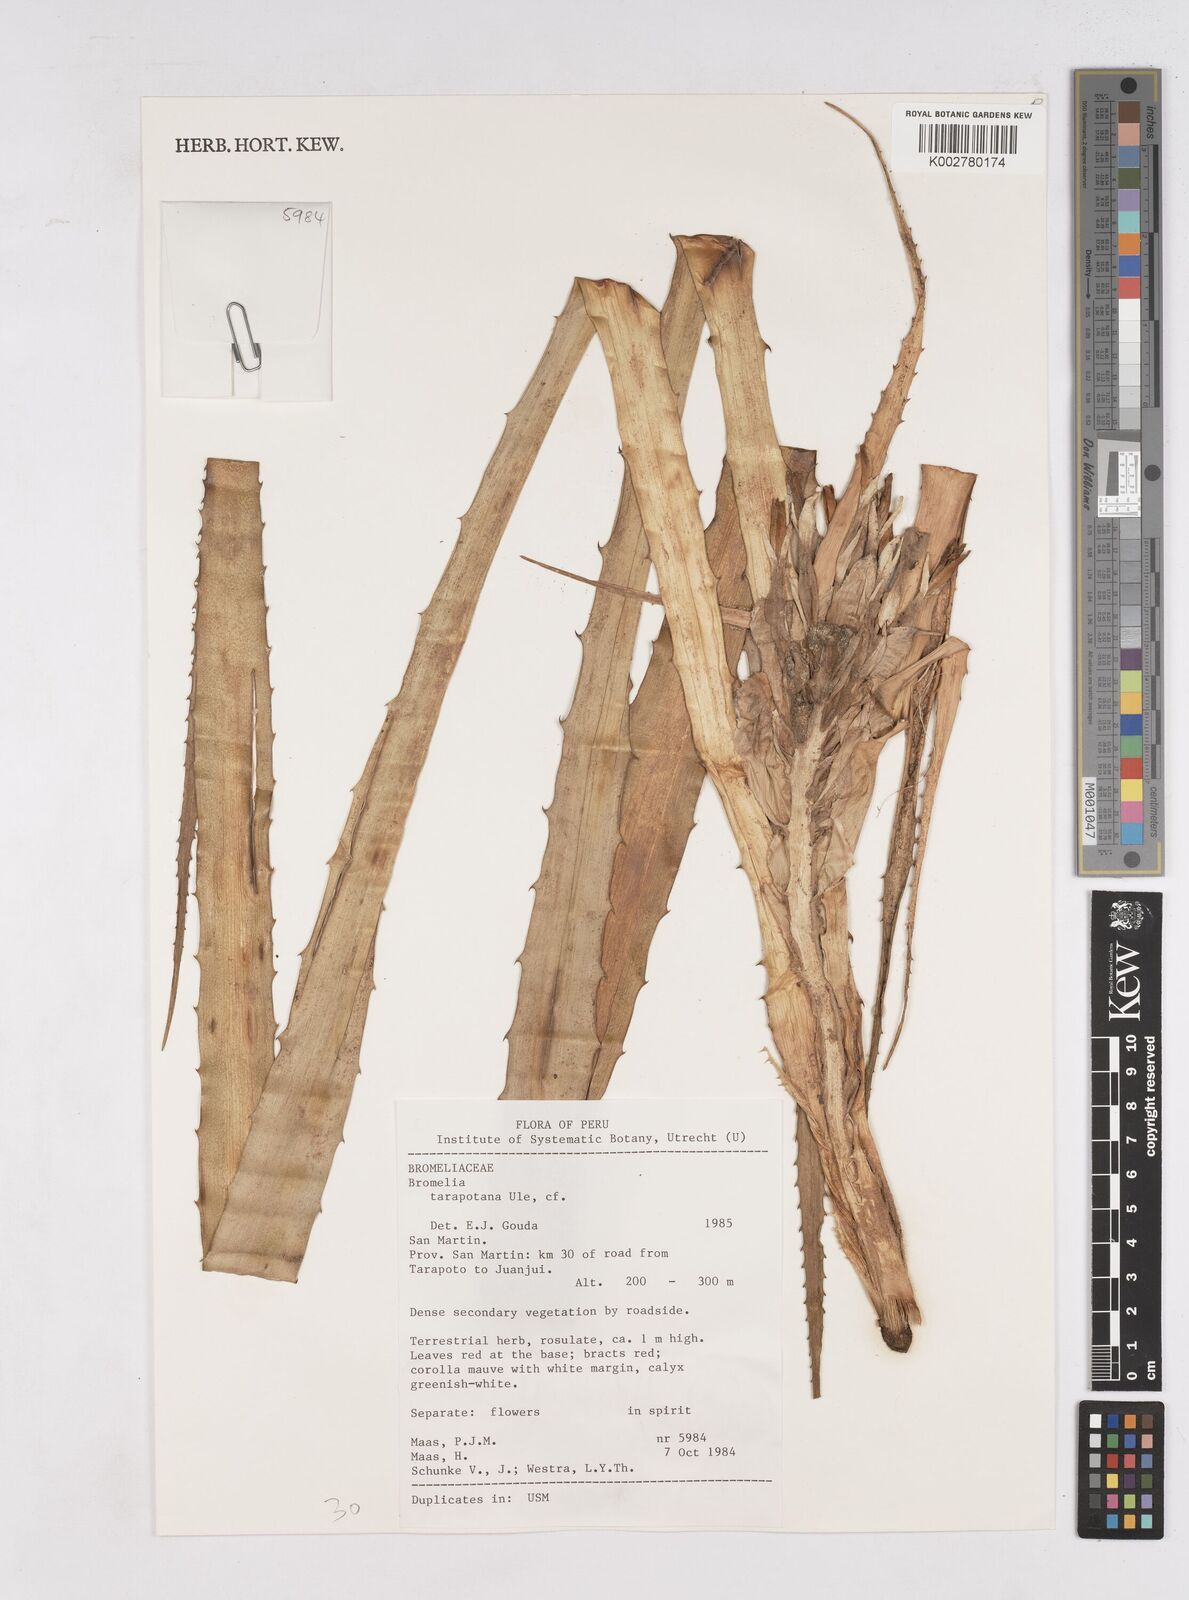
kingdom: Plantae
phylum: Tracheophyta
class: Liliopsida
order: Poales
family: Bromeliaceae
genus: Bromelia
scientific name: Bromelia tarapotina
